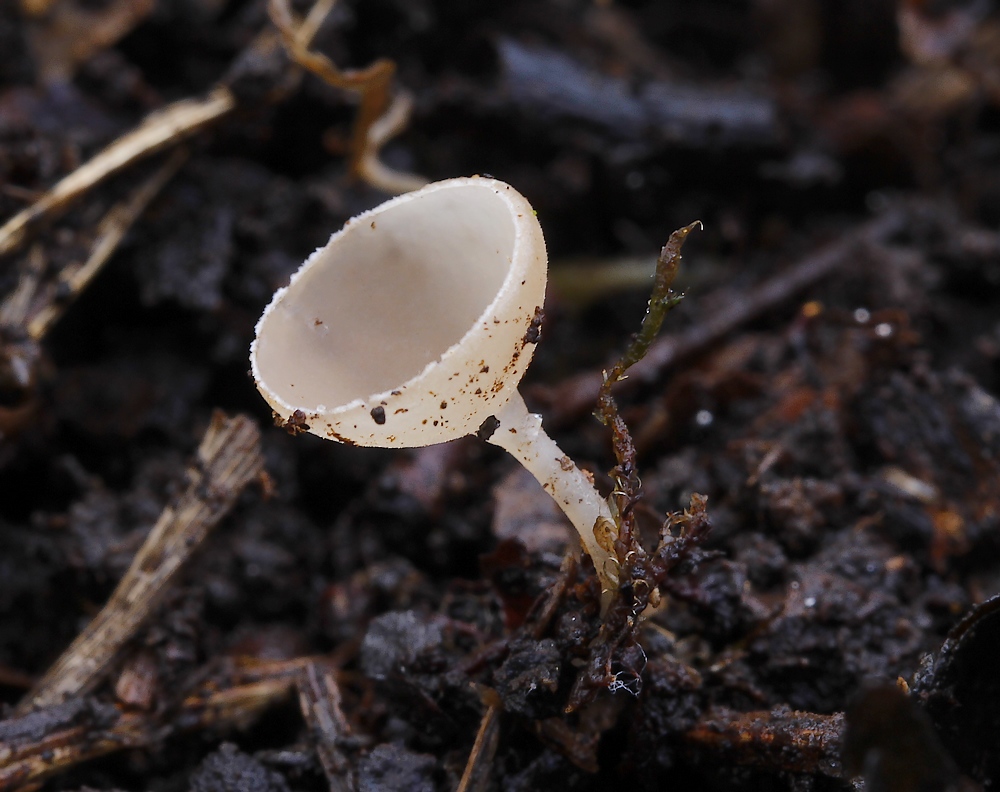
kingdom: Fungi
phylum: Ascomycota
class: Leotiomycetes
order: Helotiales
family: Sclerotiniaceae
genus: Ciboria
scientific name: Ciboria amentacea
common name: ellerakle-knoldskive
